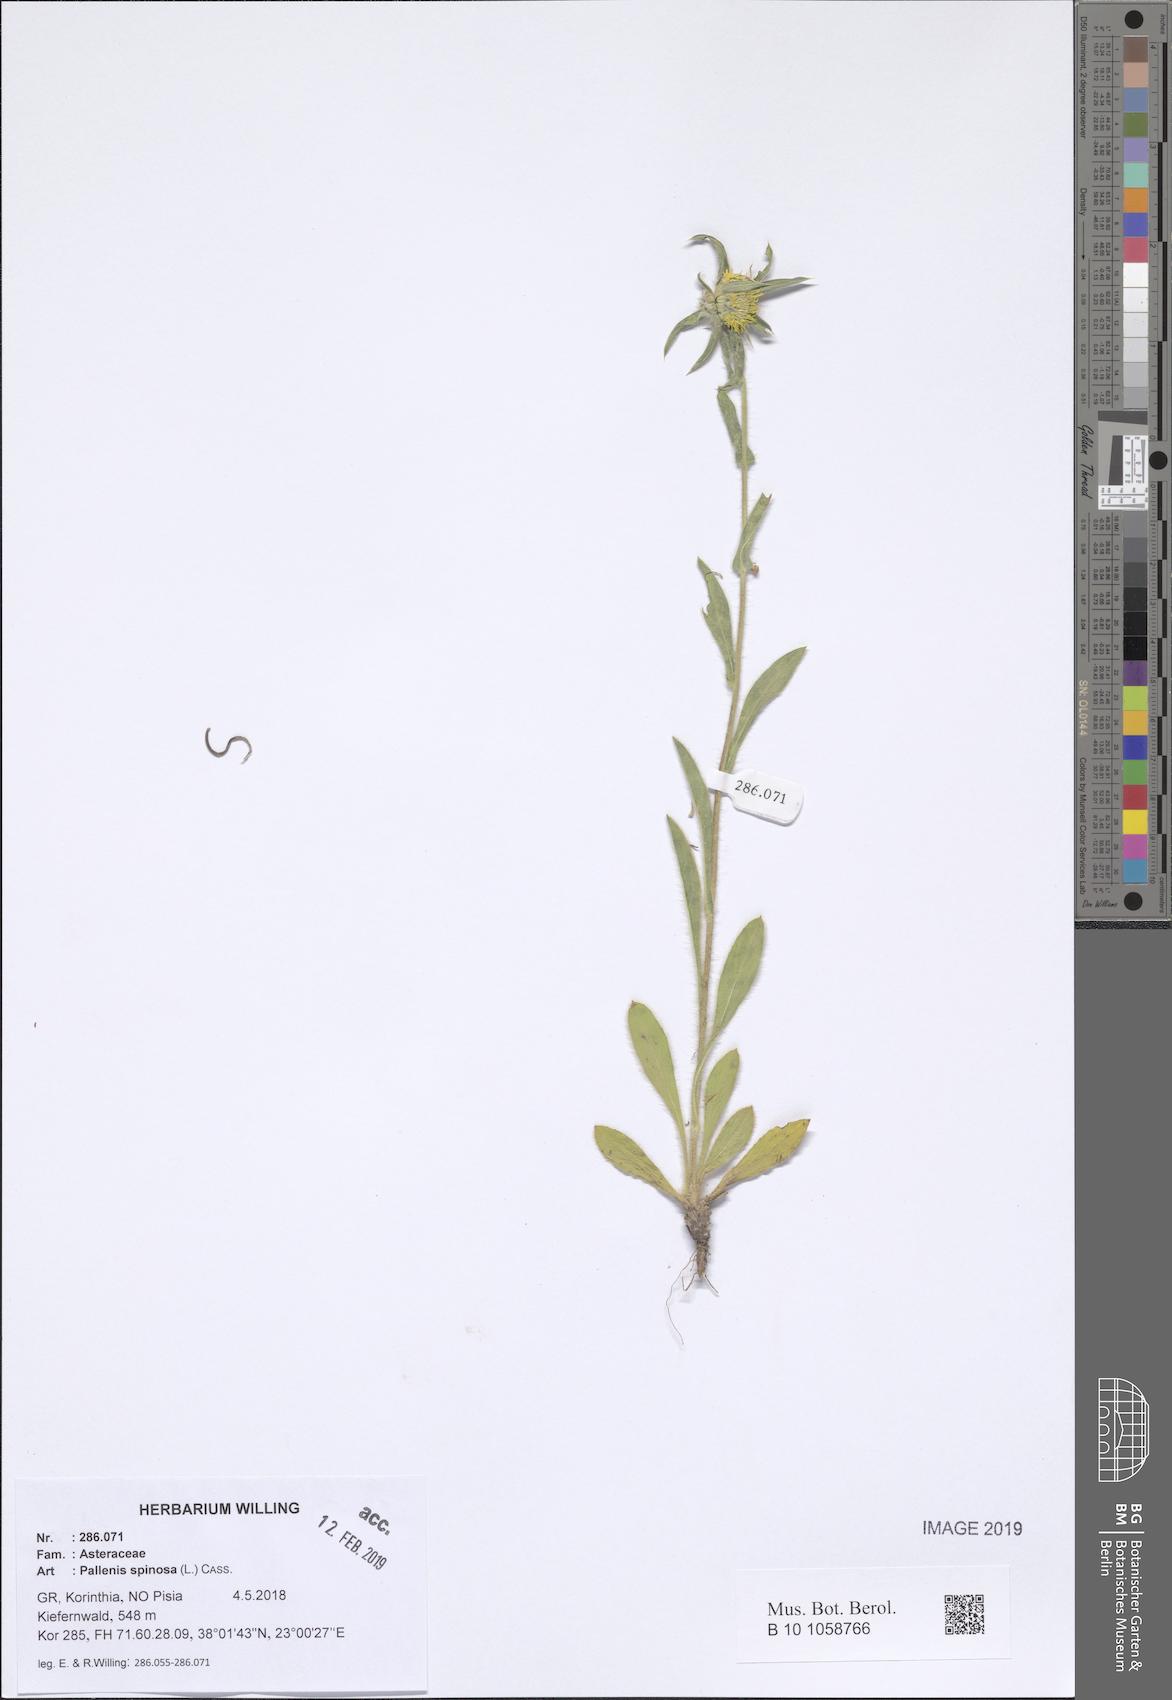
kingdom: Plantae
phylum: Tracheophyta
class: Magnoliopsida
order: Asterales
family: Asteraceae
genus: Pallenis
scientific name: Pallenis spinosa
